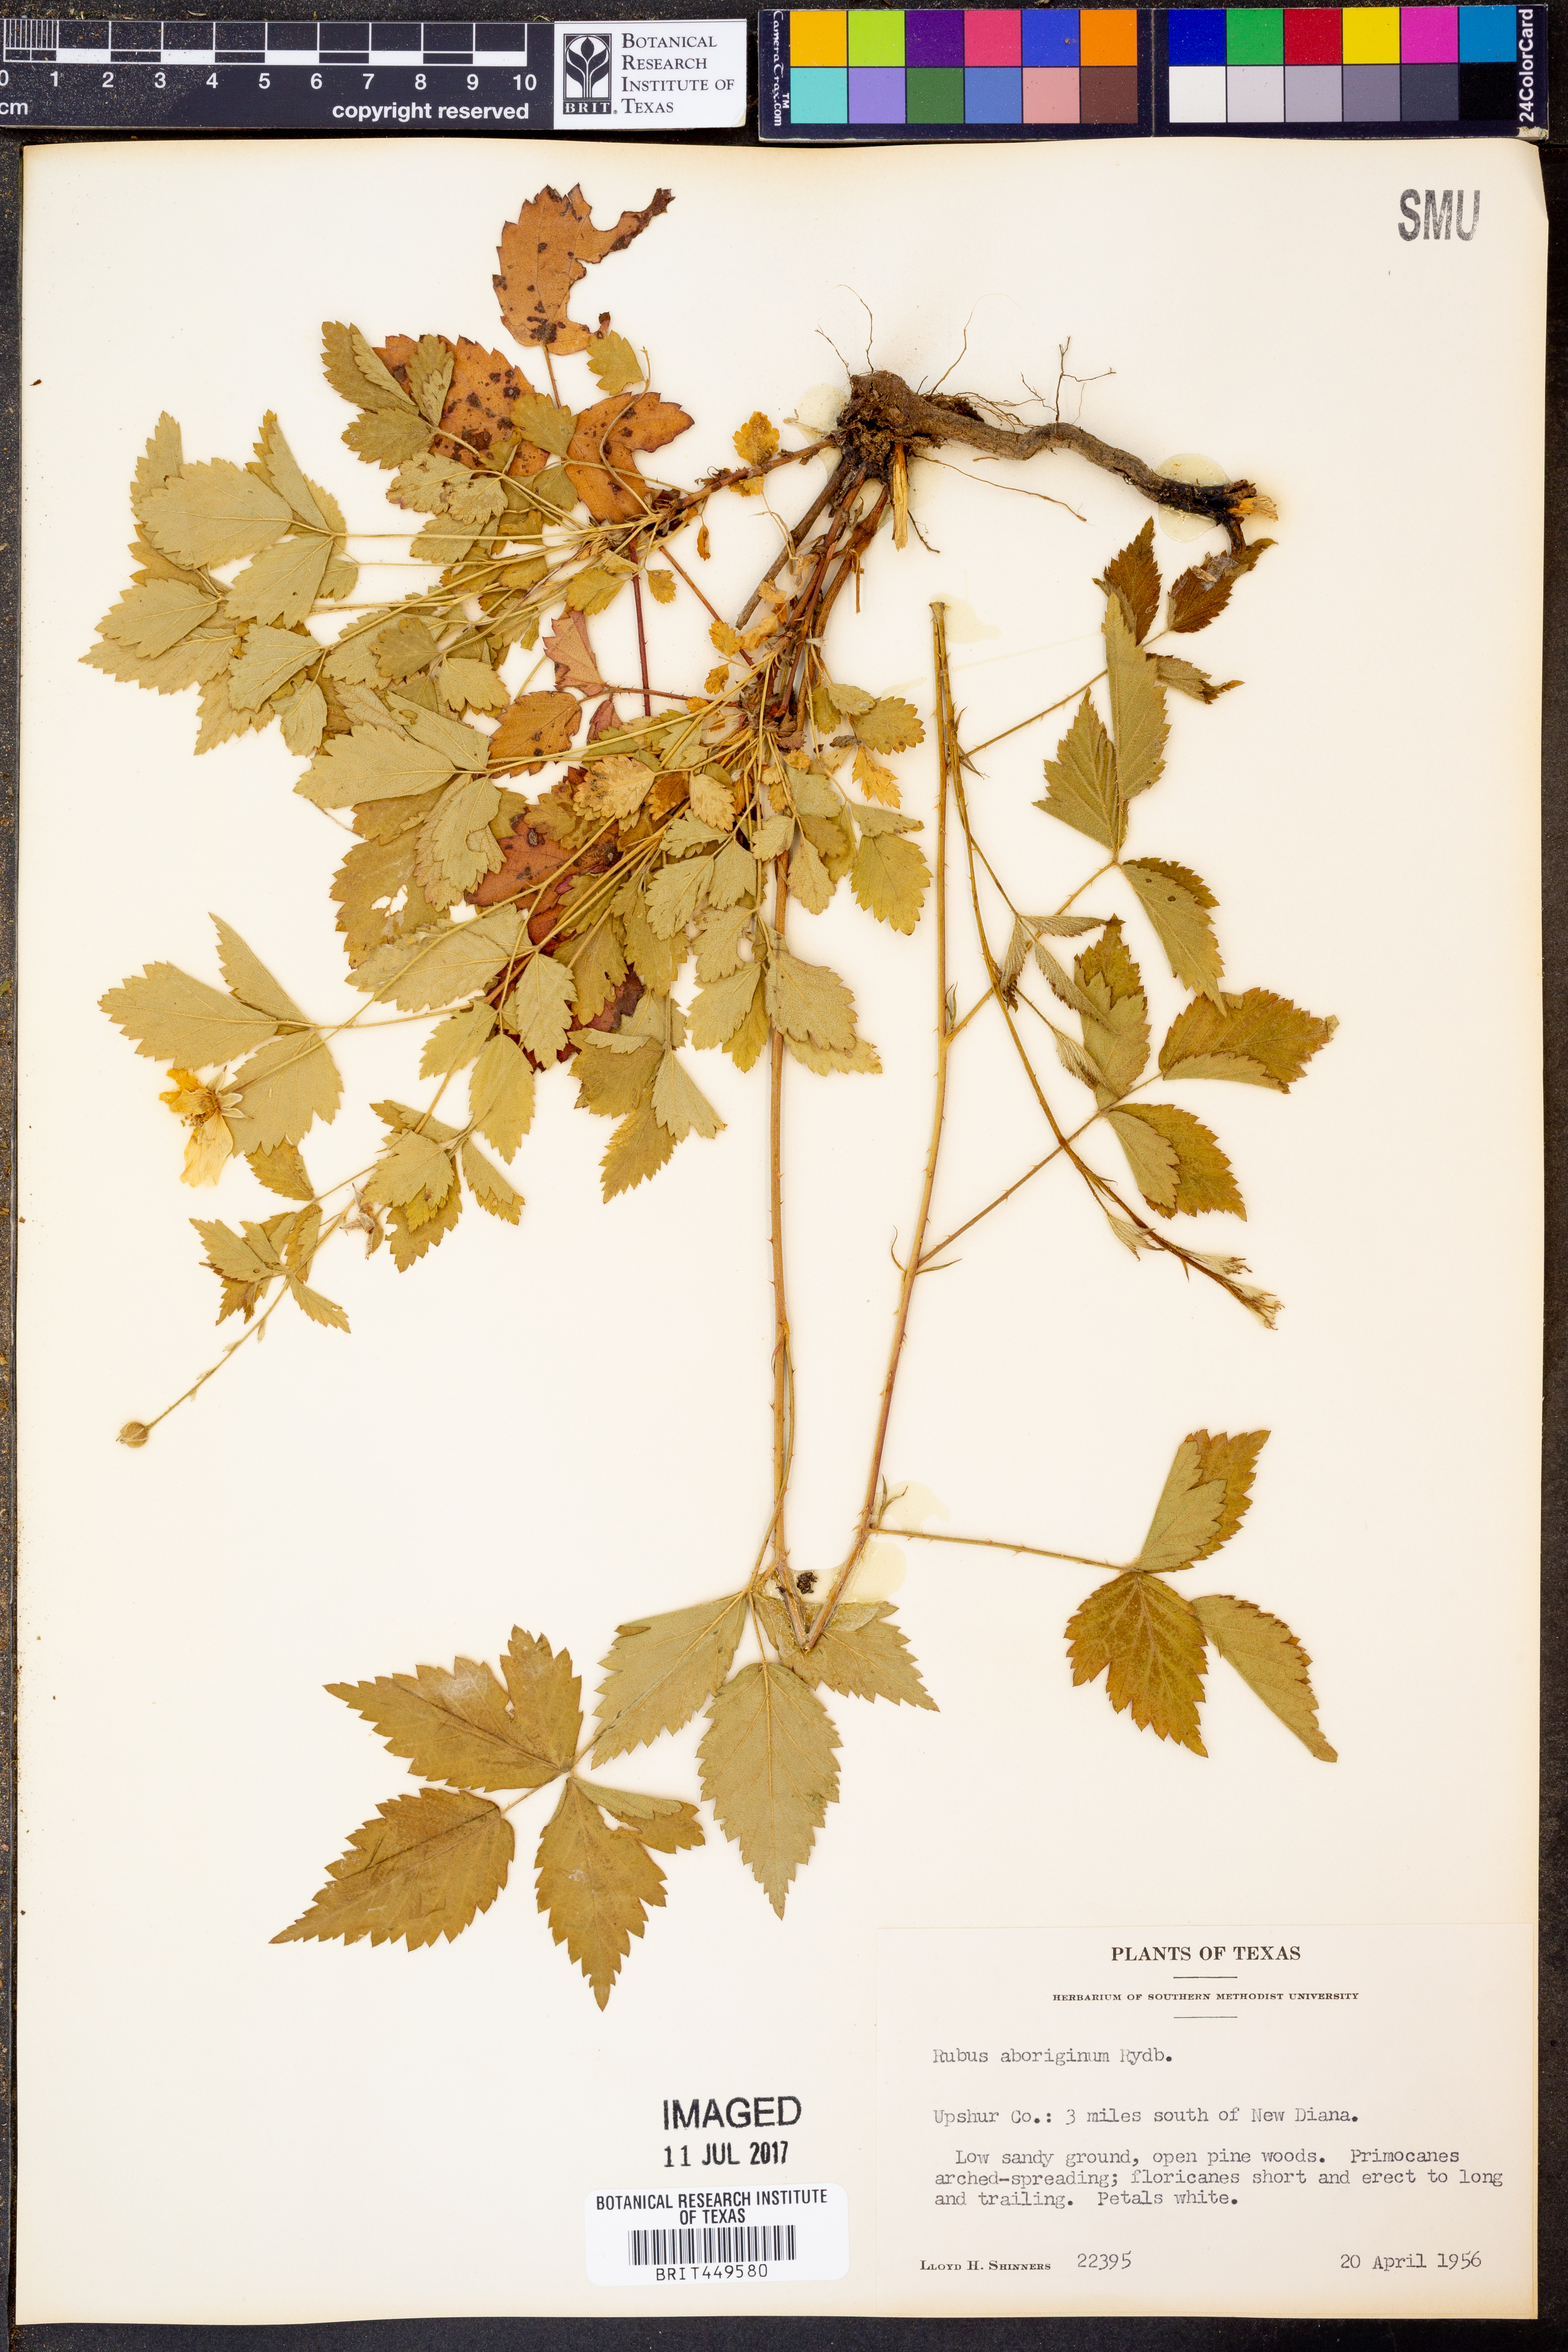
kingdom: Plantae
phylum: Tracheophyta
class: Magnoliopsida
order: Rosales
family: Rosaceae
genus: Rubus
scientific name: Rubus aboriginum
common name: Mayes dewberry
